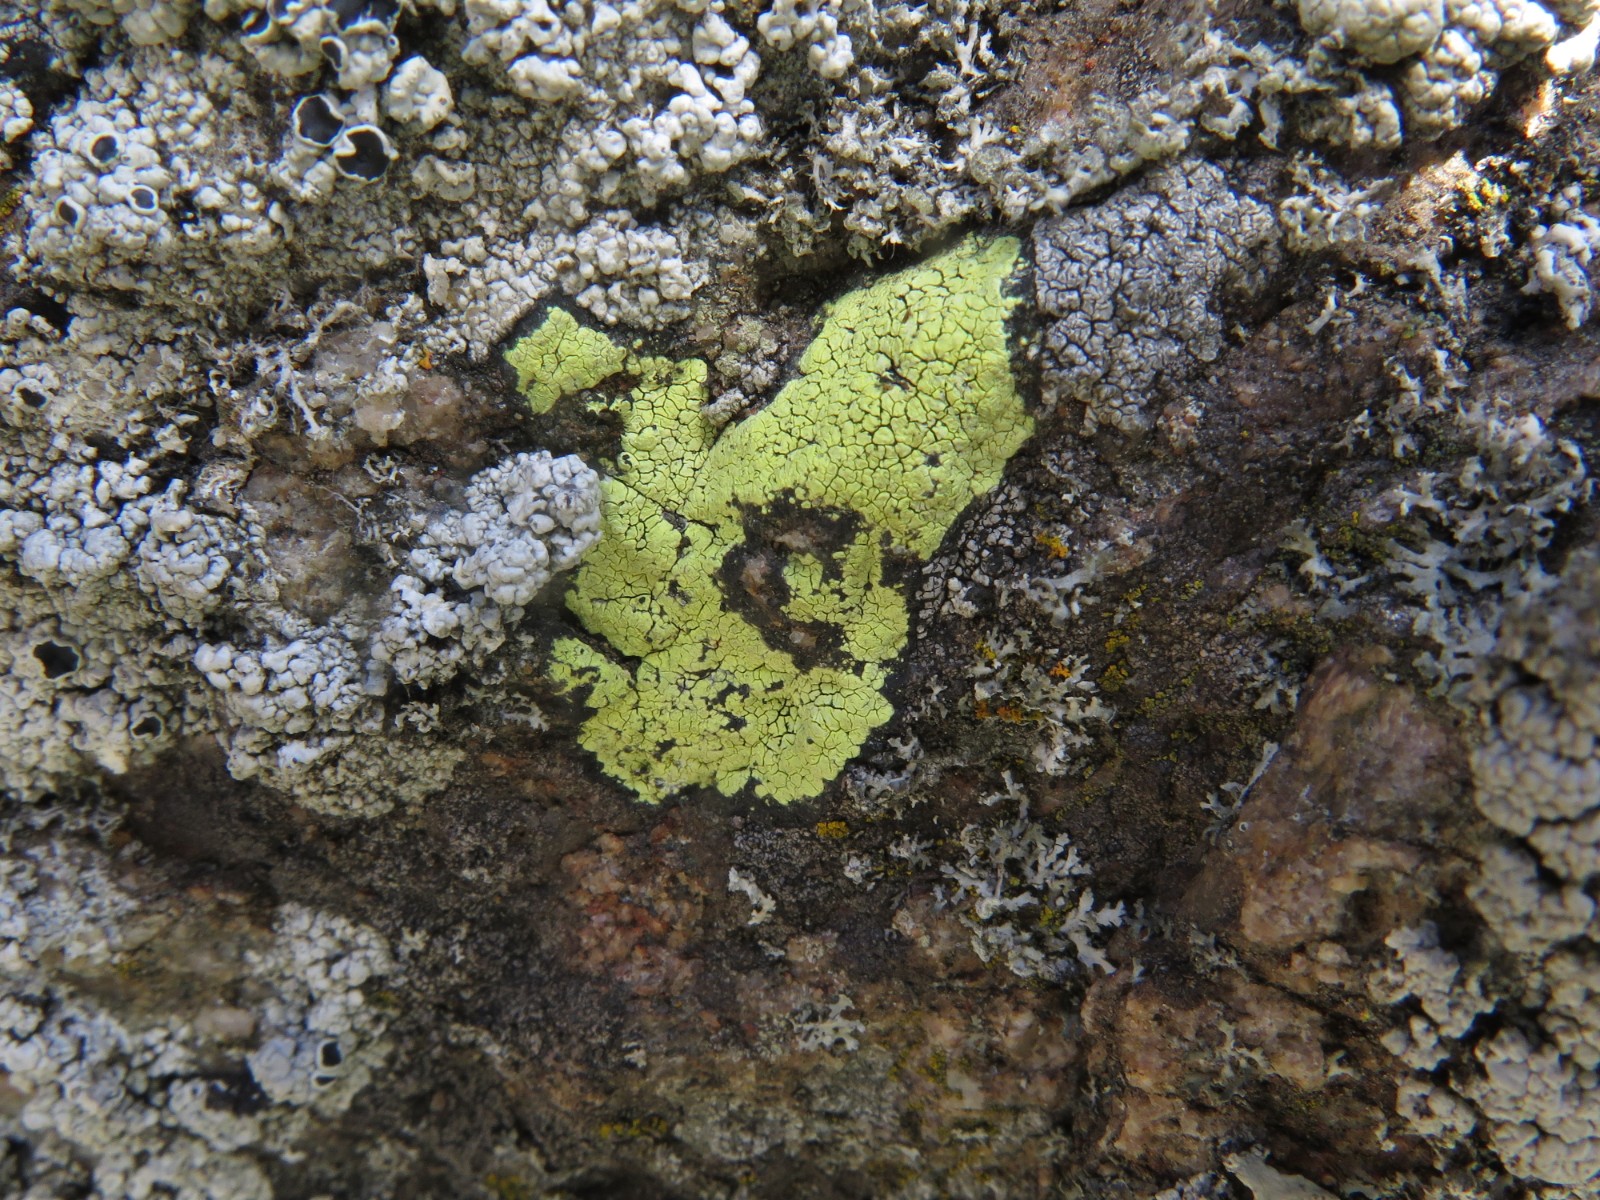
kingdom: Fungi
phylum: Ascomycota
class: Lecanoromycetes
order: Rhizocarpales
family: Rhizocarpaceae
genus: Rhizocarpon
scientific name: Rhizocarpon geographicum
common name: gulgrøn landkortlav
